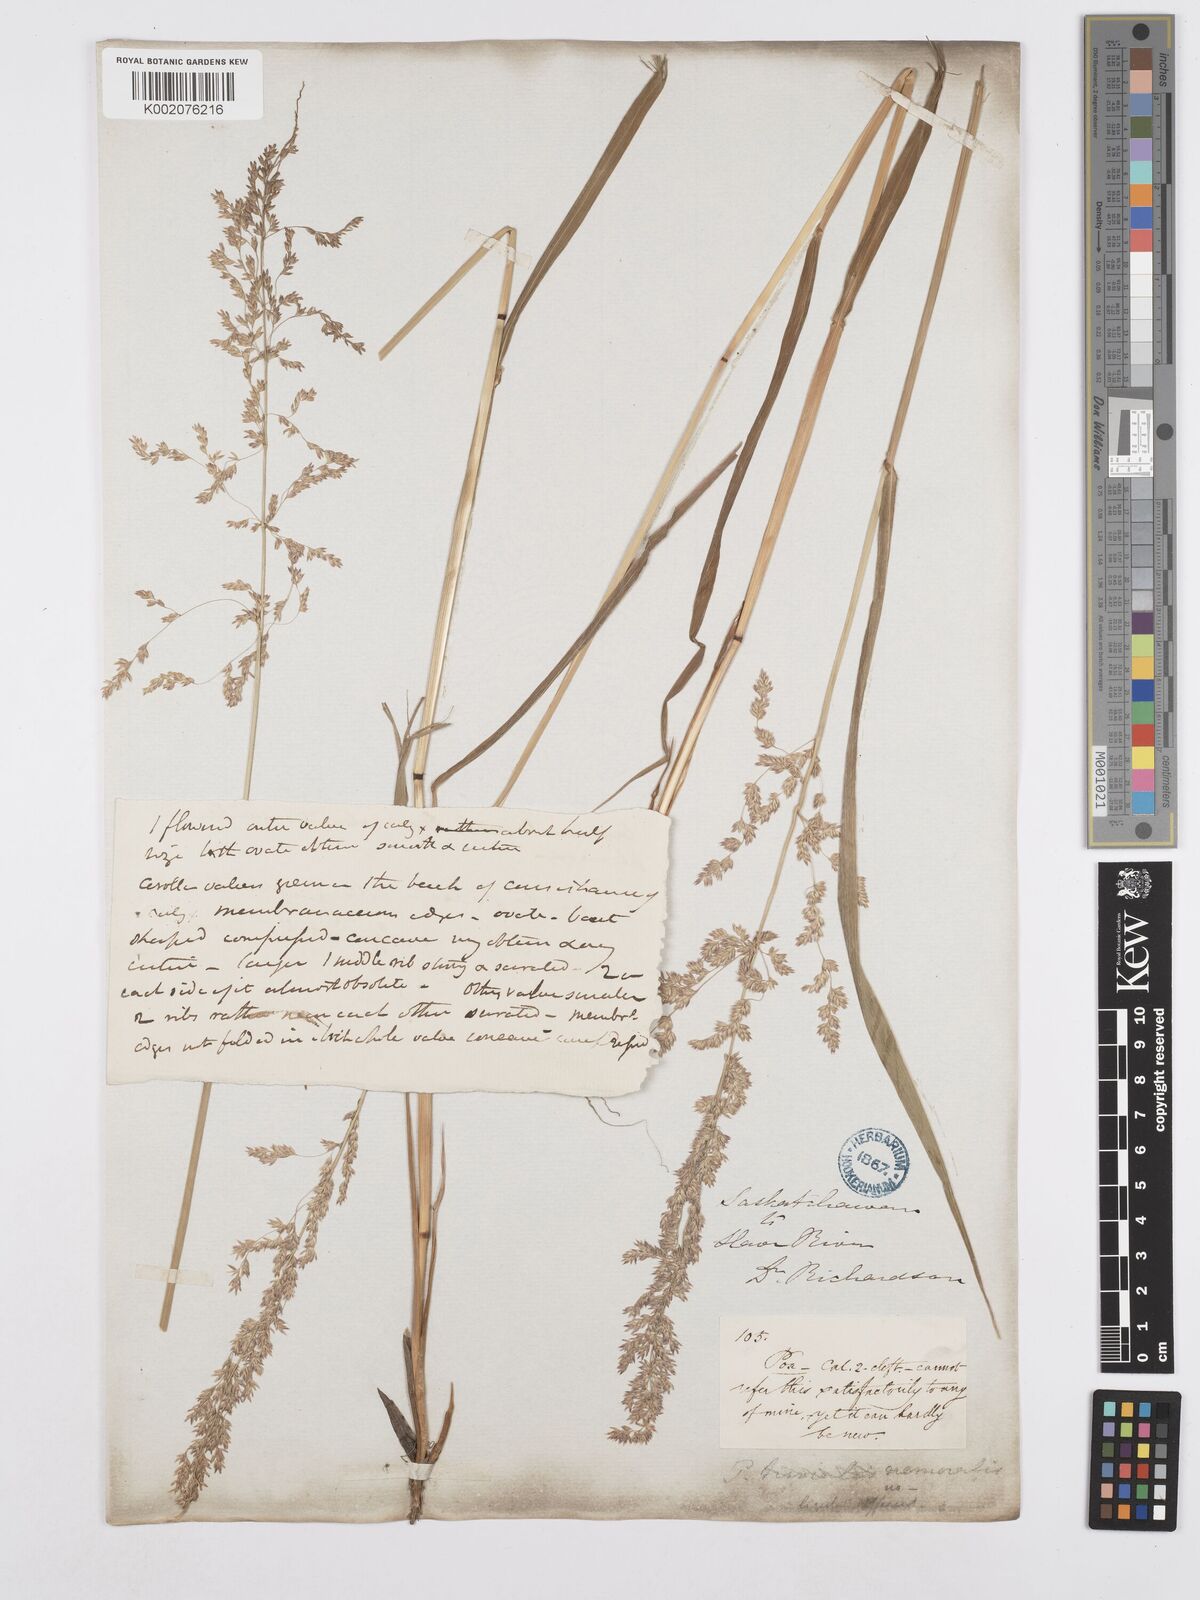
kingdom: Plantae
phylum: Tracheophyta
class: Liliopsida
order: Poales
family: Poaceae
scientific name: Poaceae
